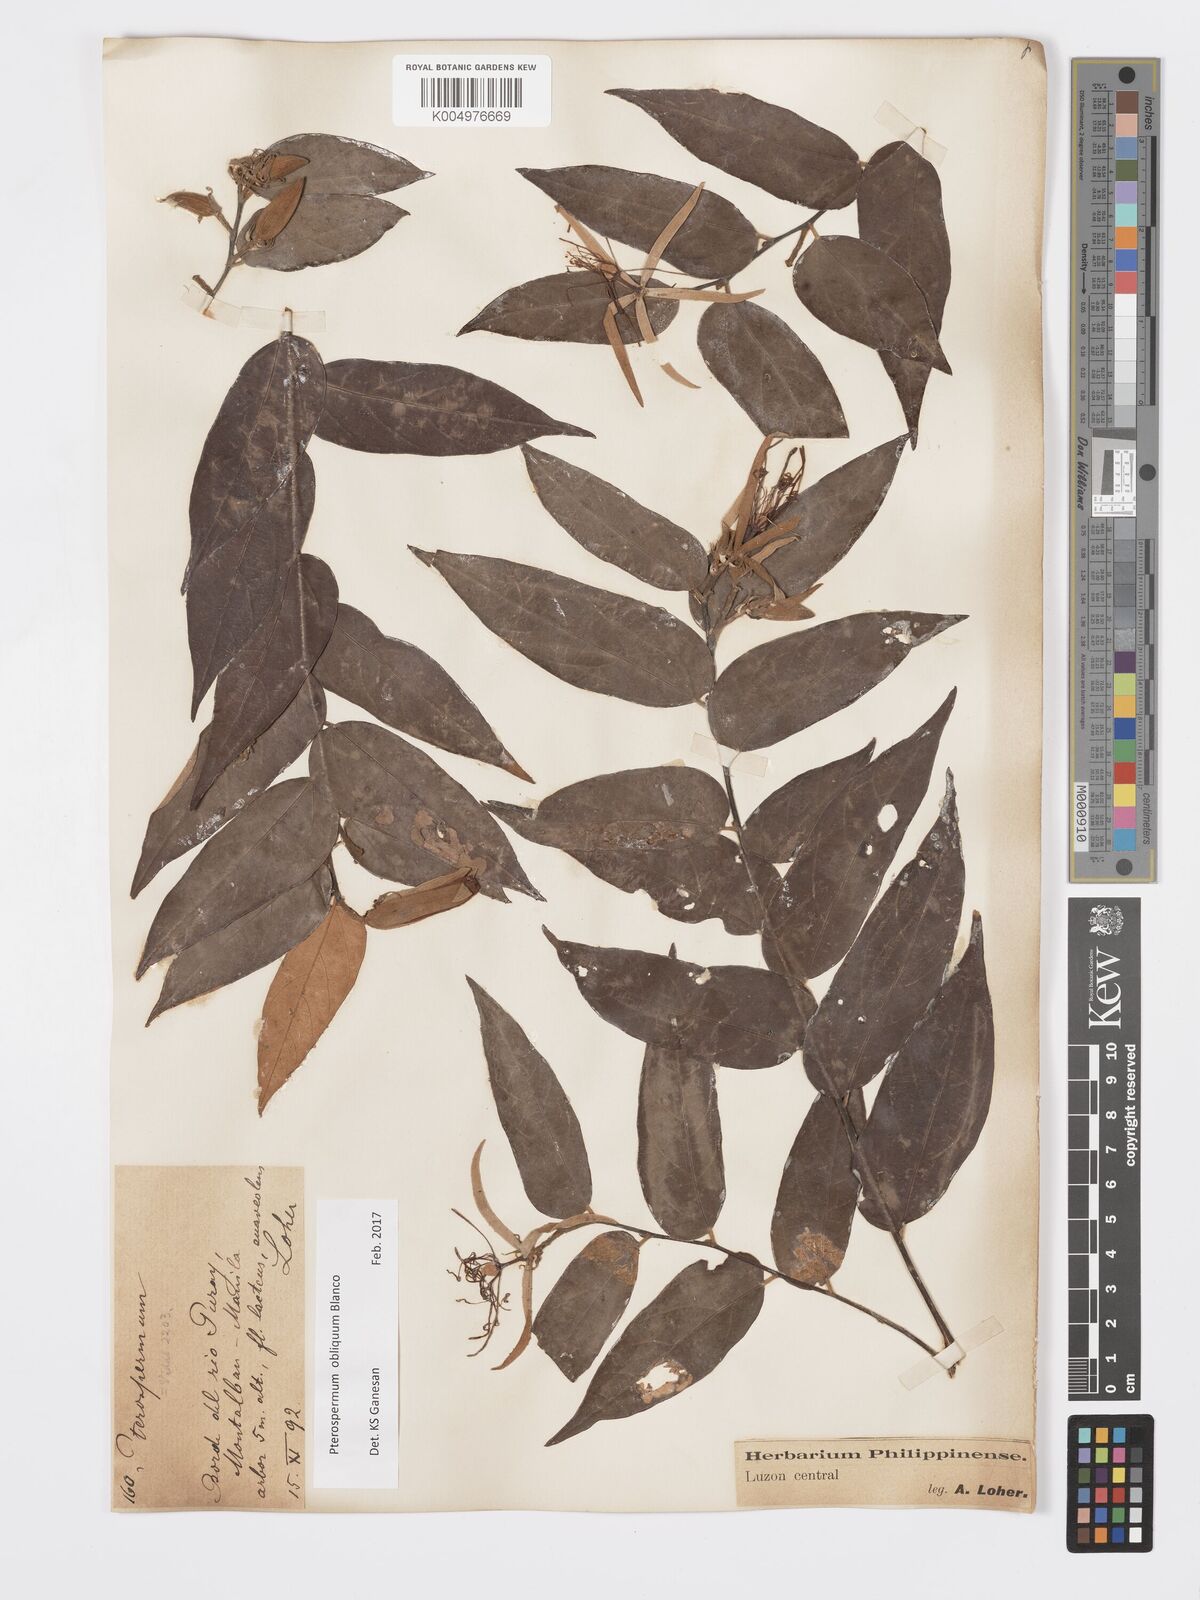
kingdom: Plantae
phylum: Tracheophyta
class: Magnoliopsida
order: Malvales
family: Malvaceae
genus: Pterospermum
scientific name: Pterospermum obliquum
